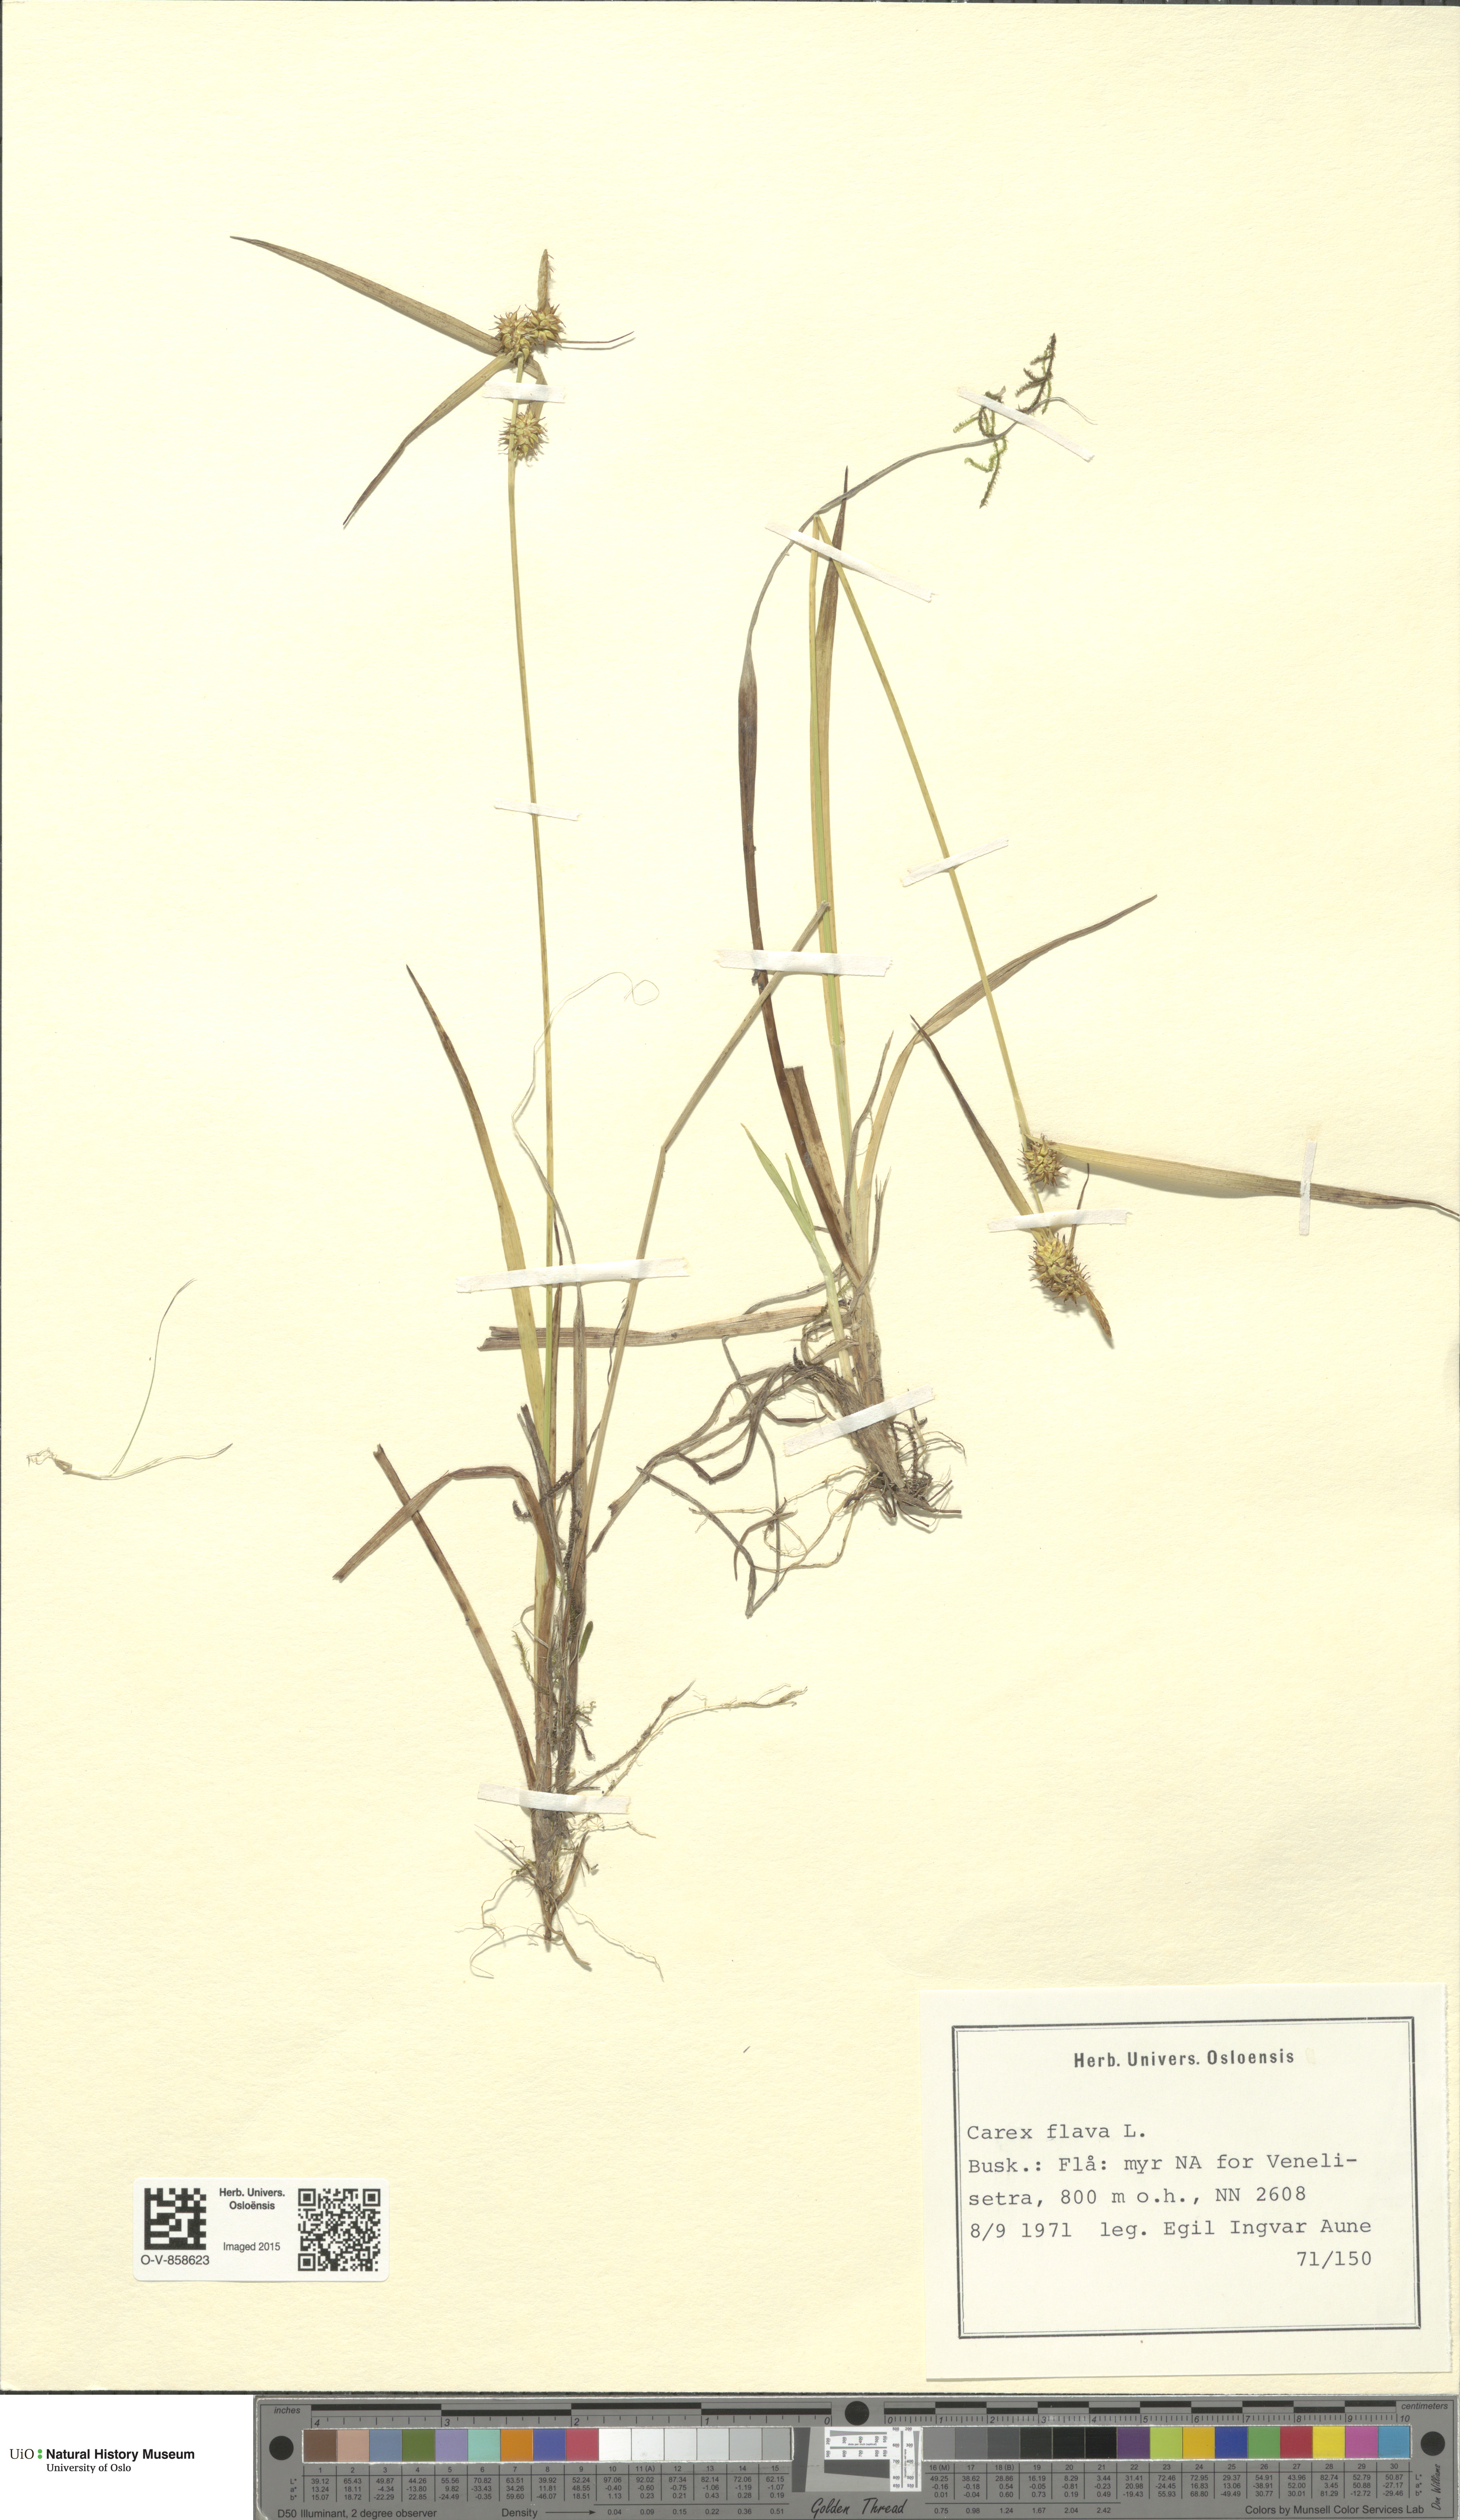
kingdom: Plantae
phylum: Tracheophyta
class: Liliopsida
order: Poales
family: Cyperaceae
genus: Carex
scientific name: Carex flava
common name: Large yellow-sedge
